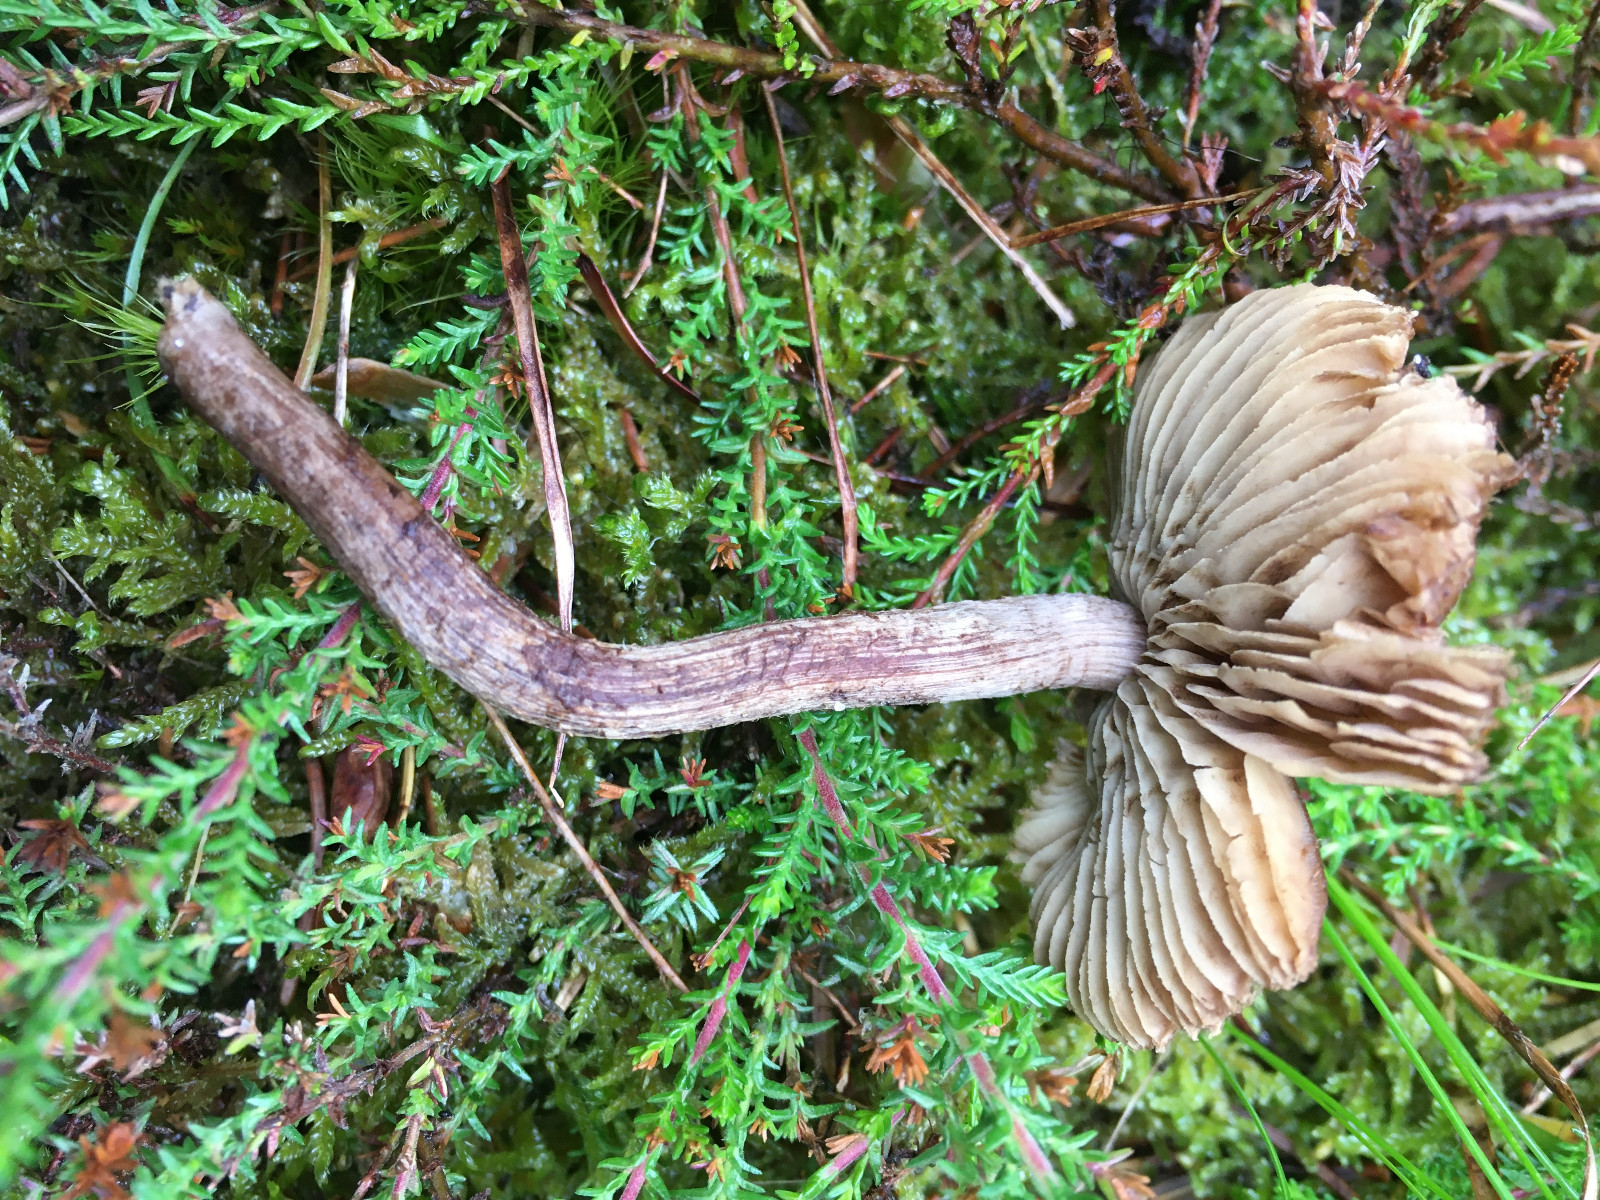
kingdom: Fungi
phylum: Basidiomycota
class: Agaricomycetes
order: Agaricales
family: Inocybaceae
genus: Inocybe
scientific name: Inocybe
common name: trævlhat
